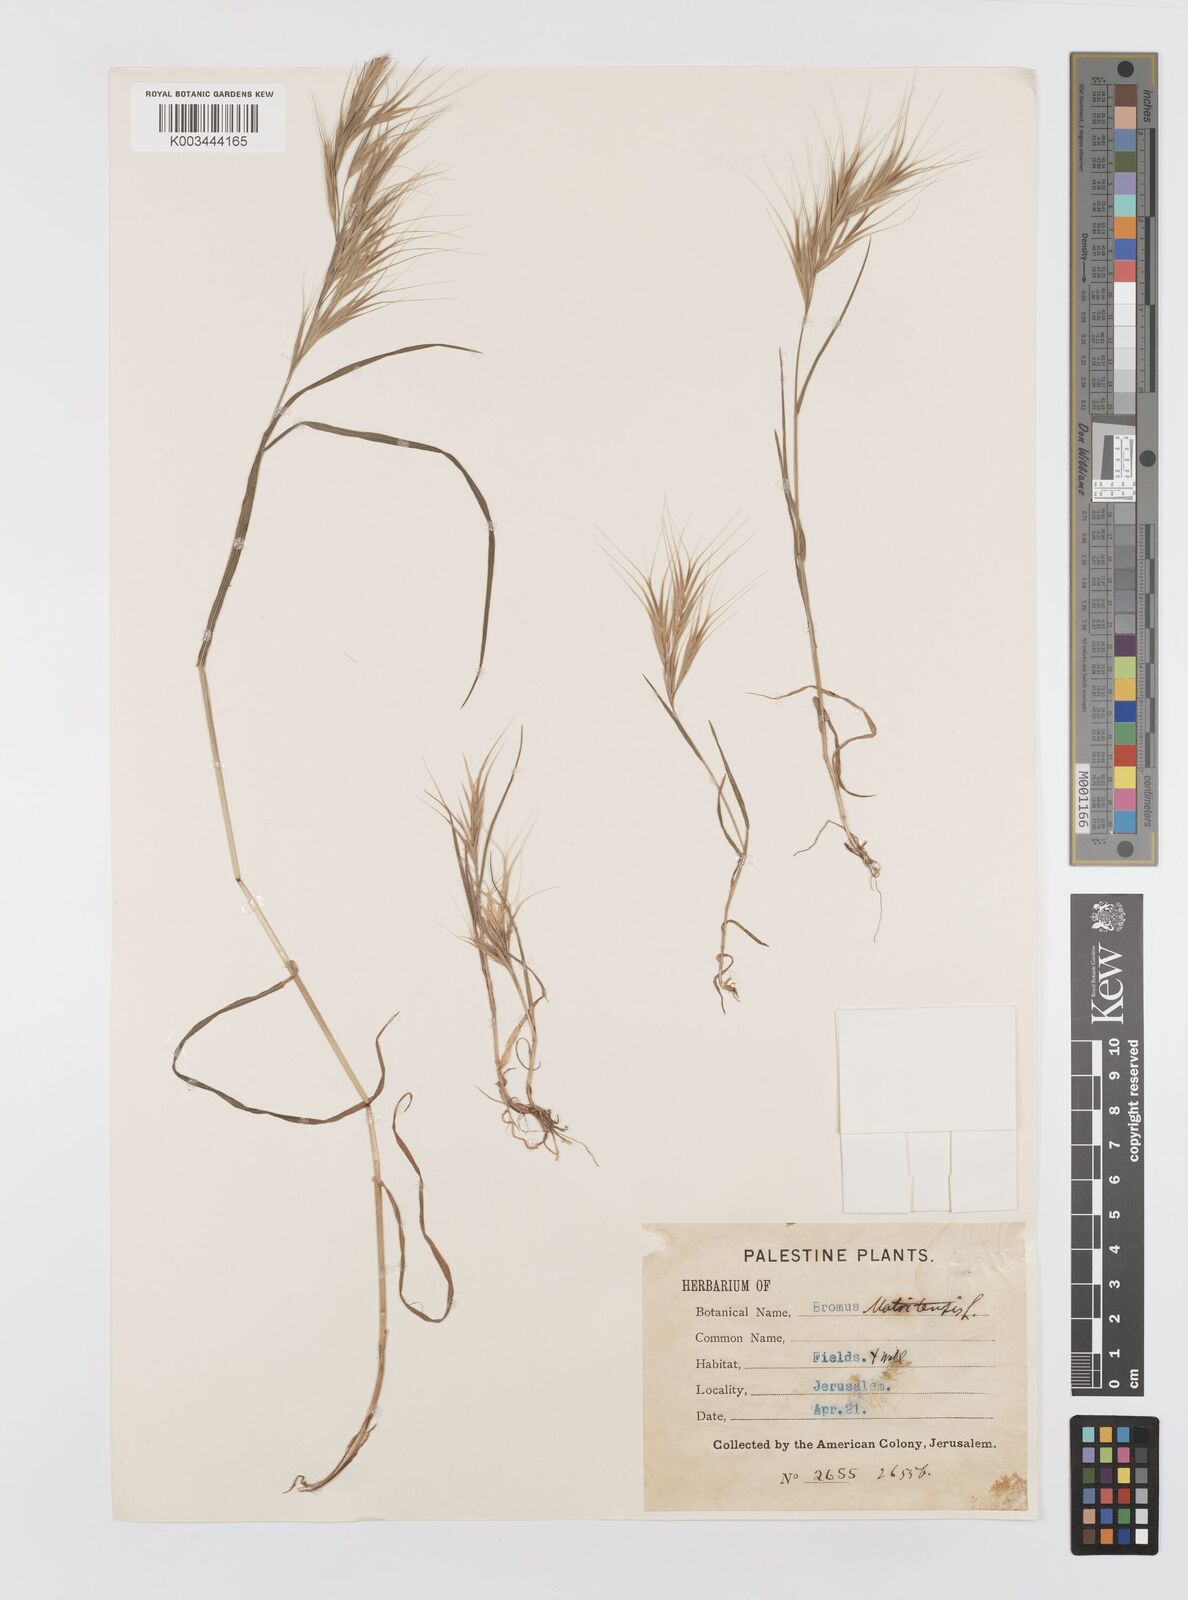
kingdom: Plantae
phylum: Tracheophyta
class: Liliopsida
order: Poales
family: Poaceae
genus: Bromus
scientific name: Bromus madritensis
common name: Compact brome
